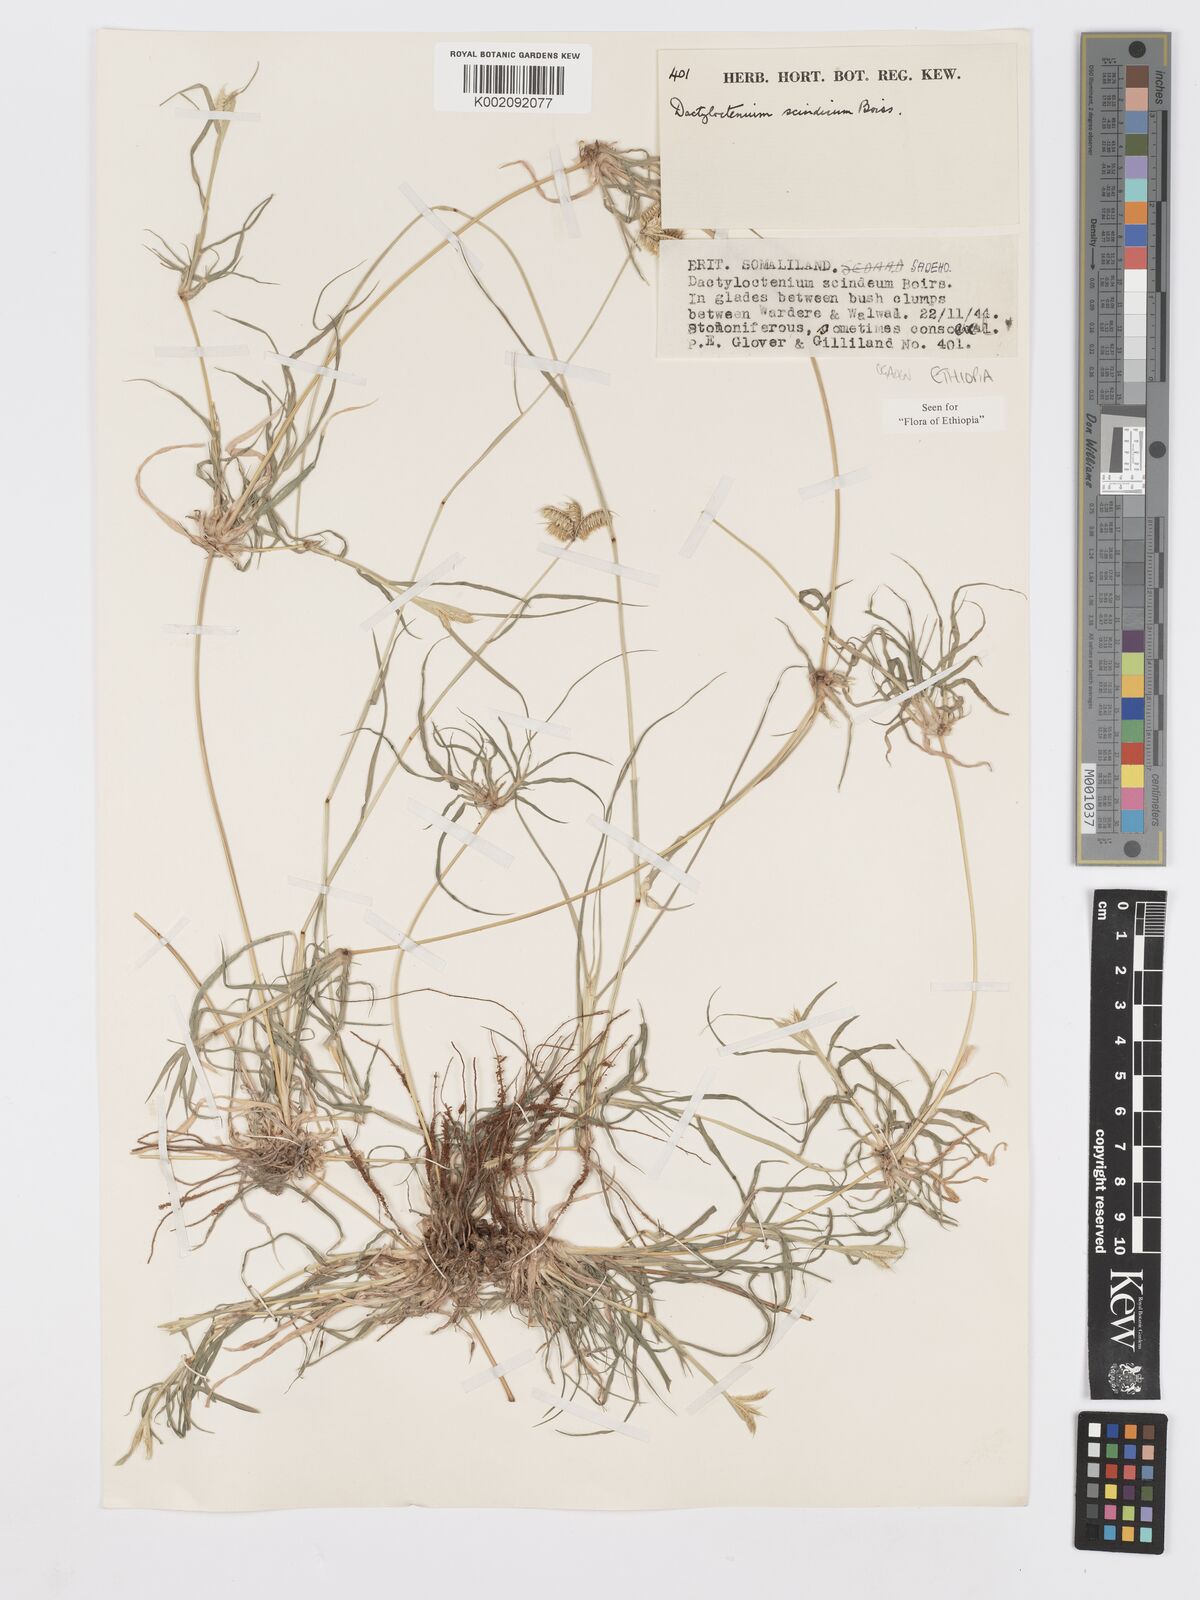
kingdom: Plantae
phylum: Tracheophyta
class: Liliopsida
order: Poales
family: Poaceae
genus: Dactyloctenium
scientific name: Dactyloctenium scindicum
